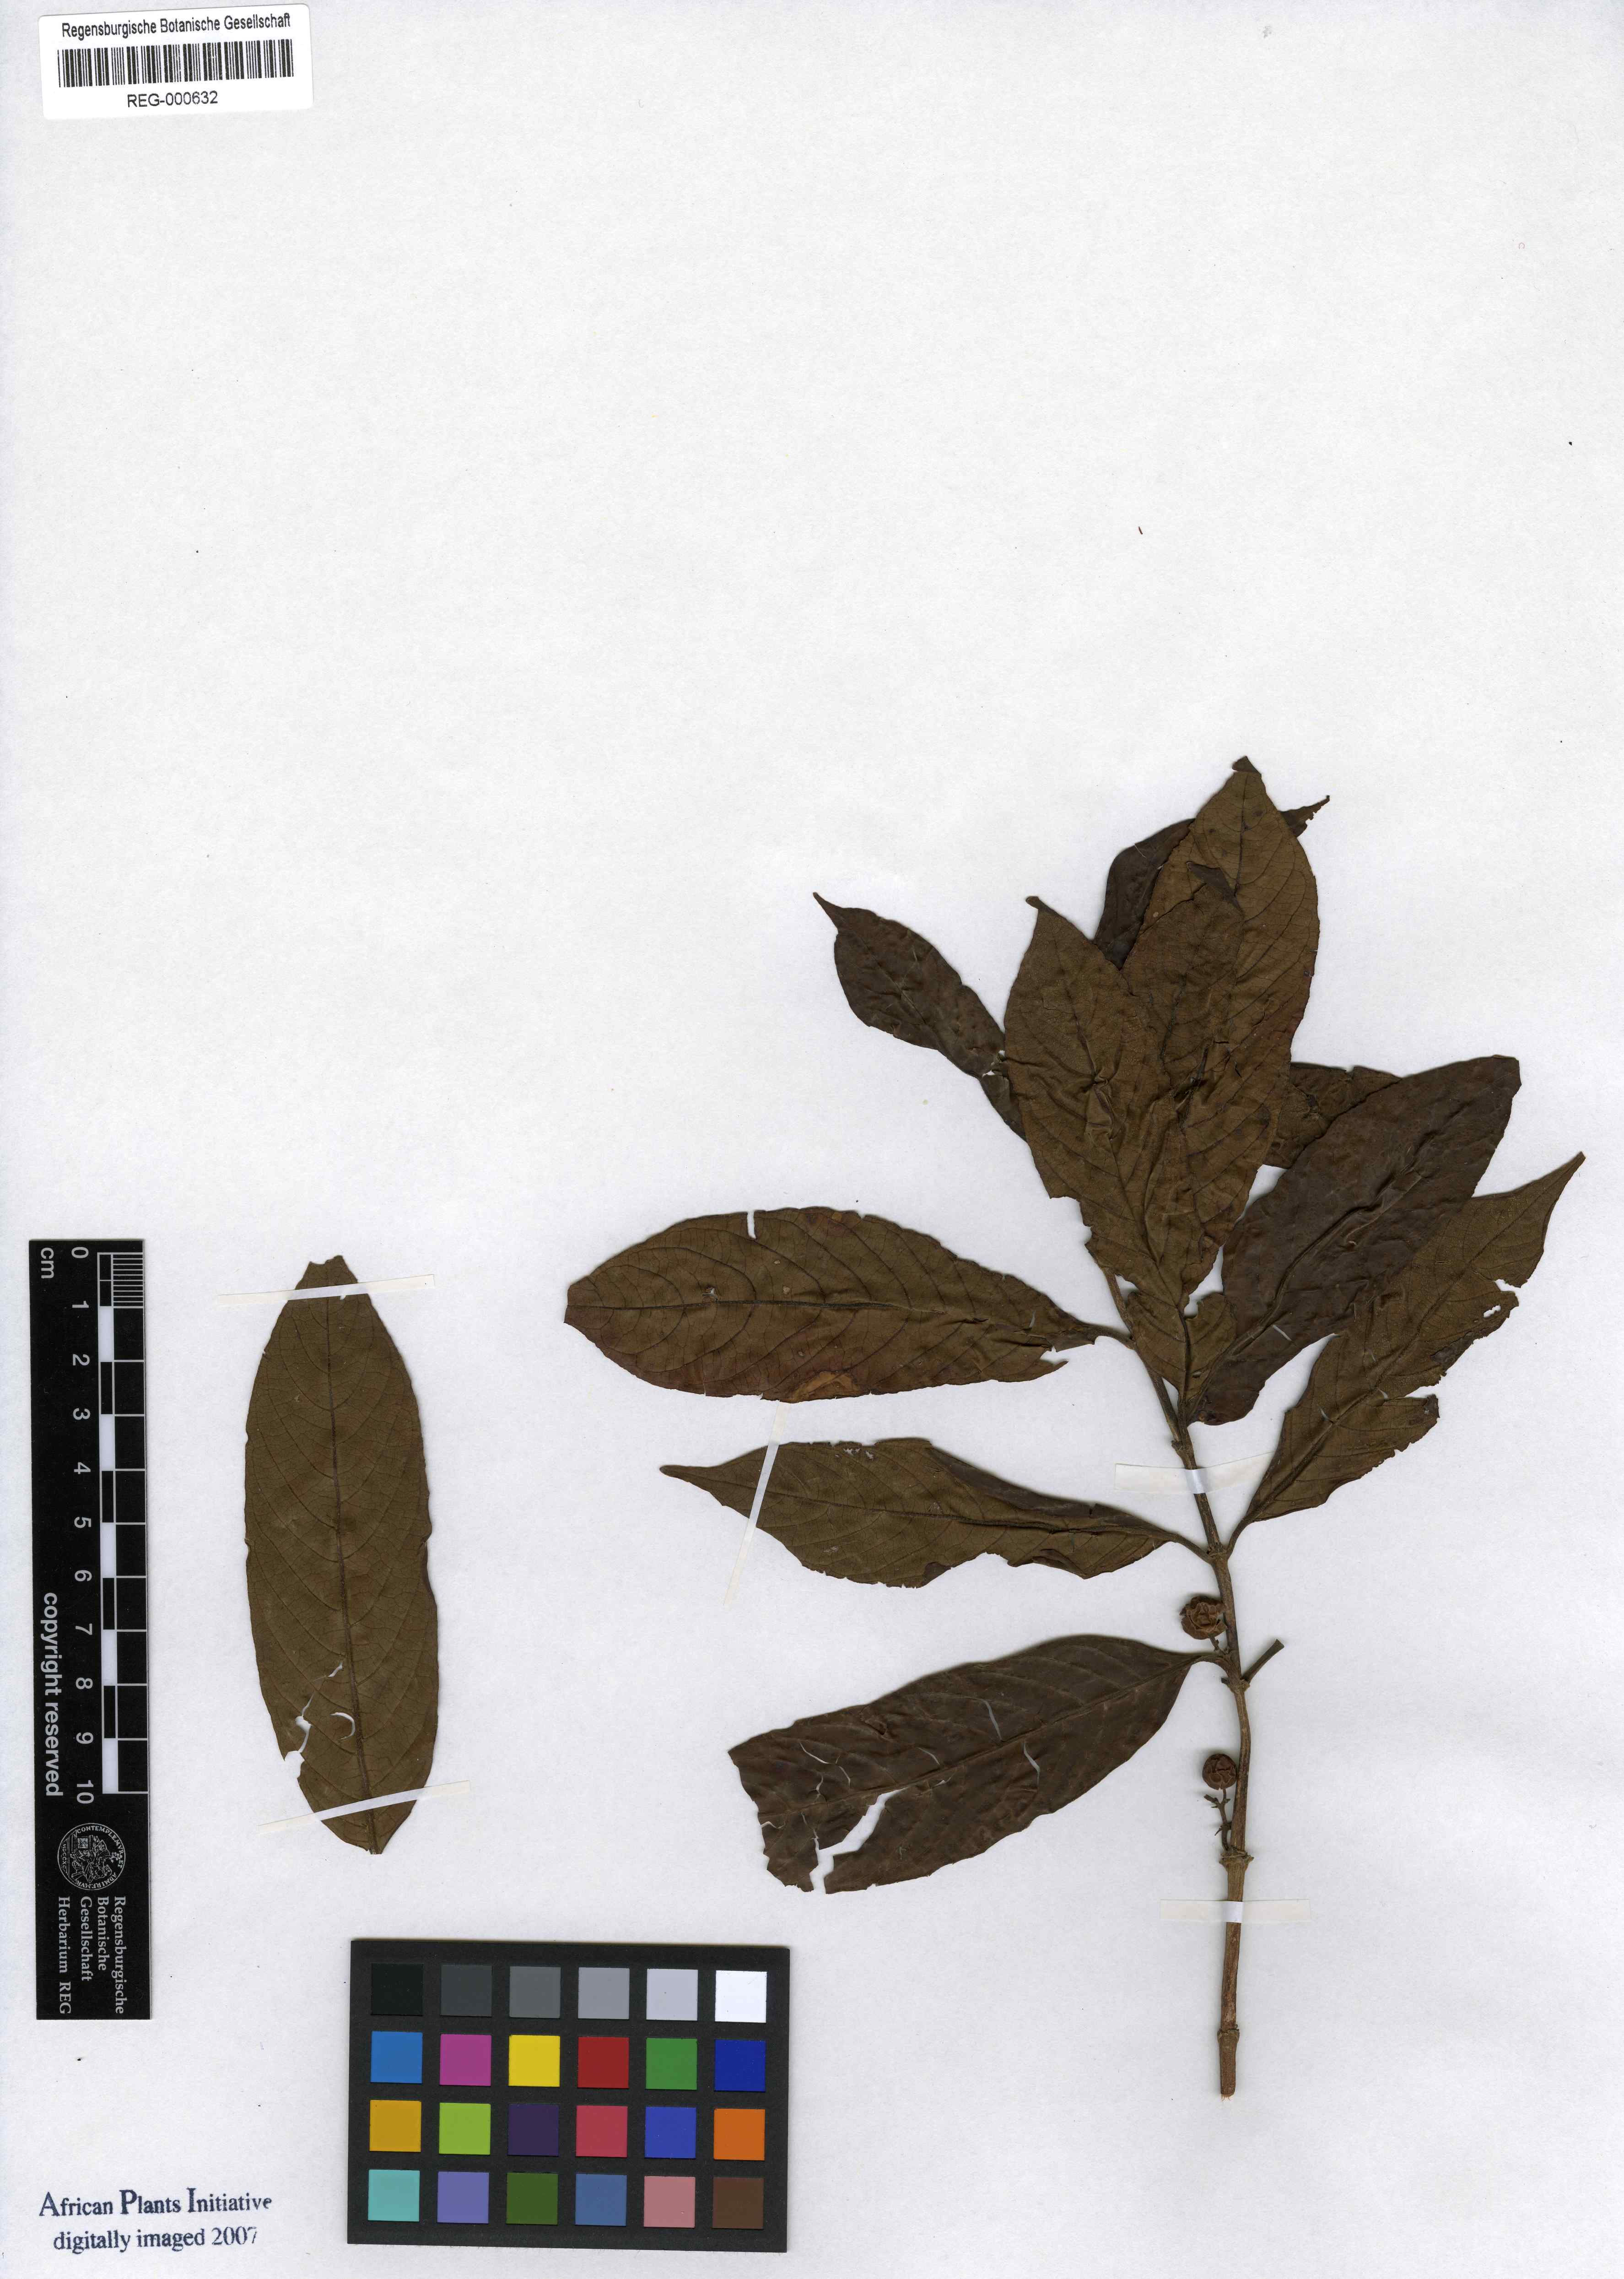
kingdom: Plantae
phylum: Tracheophyta
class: Magnoliopsida
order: Gentianales
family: Rubiaceae
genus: Galiniera
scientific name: Galiniera saxifraga
